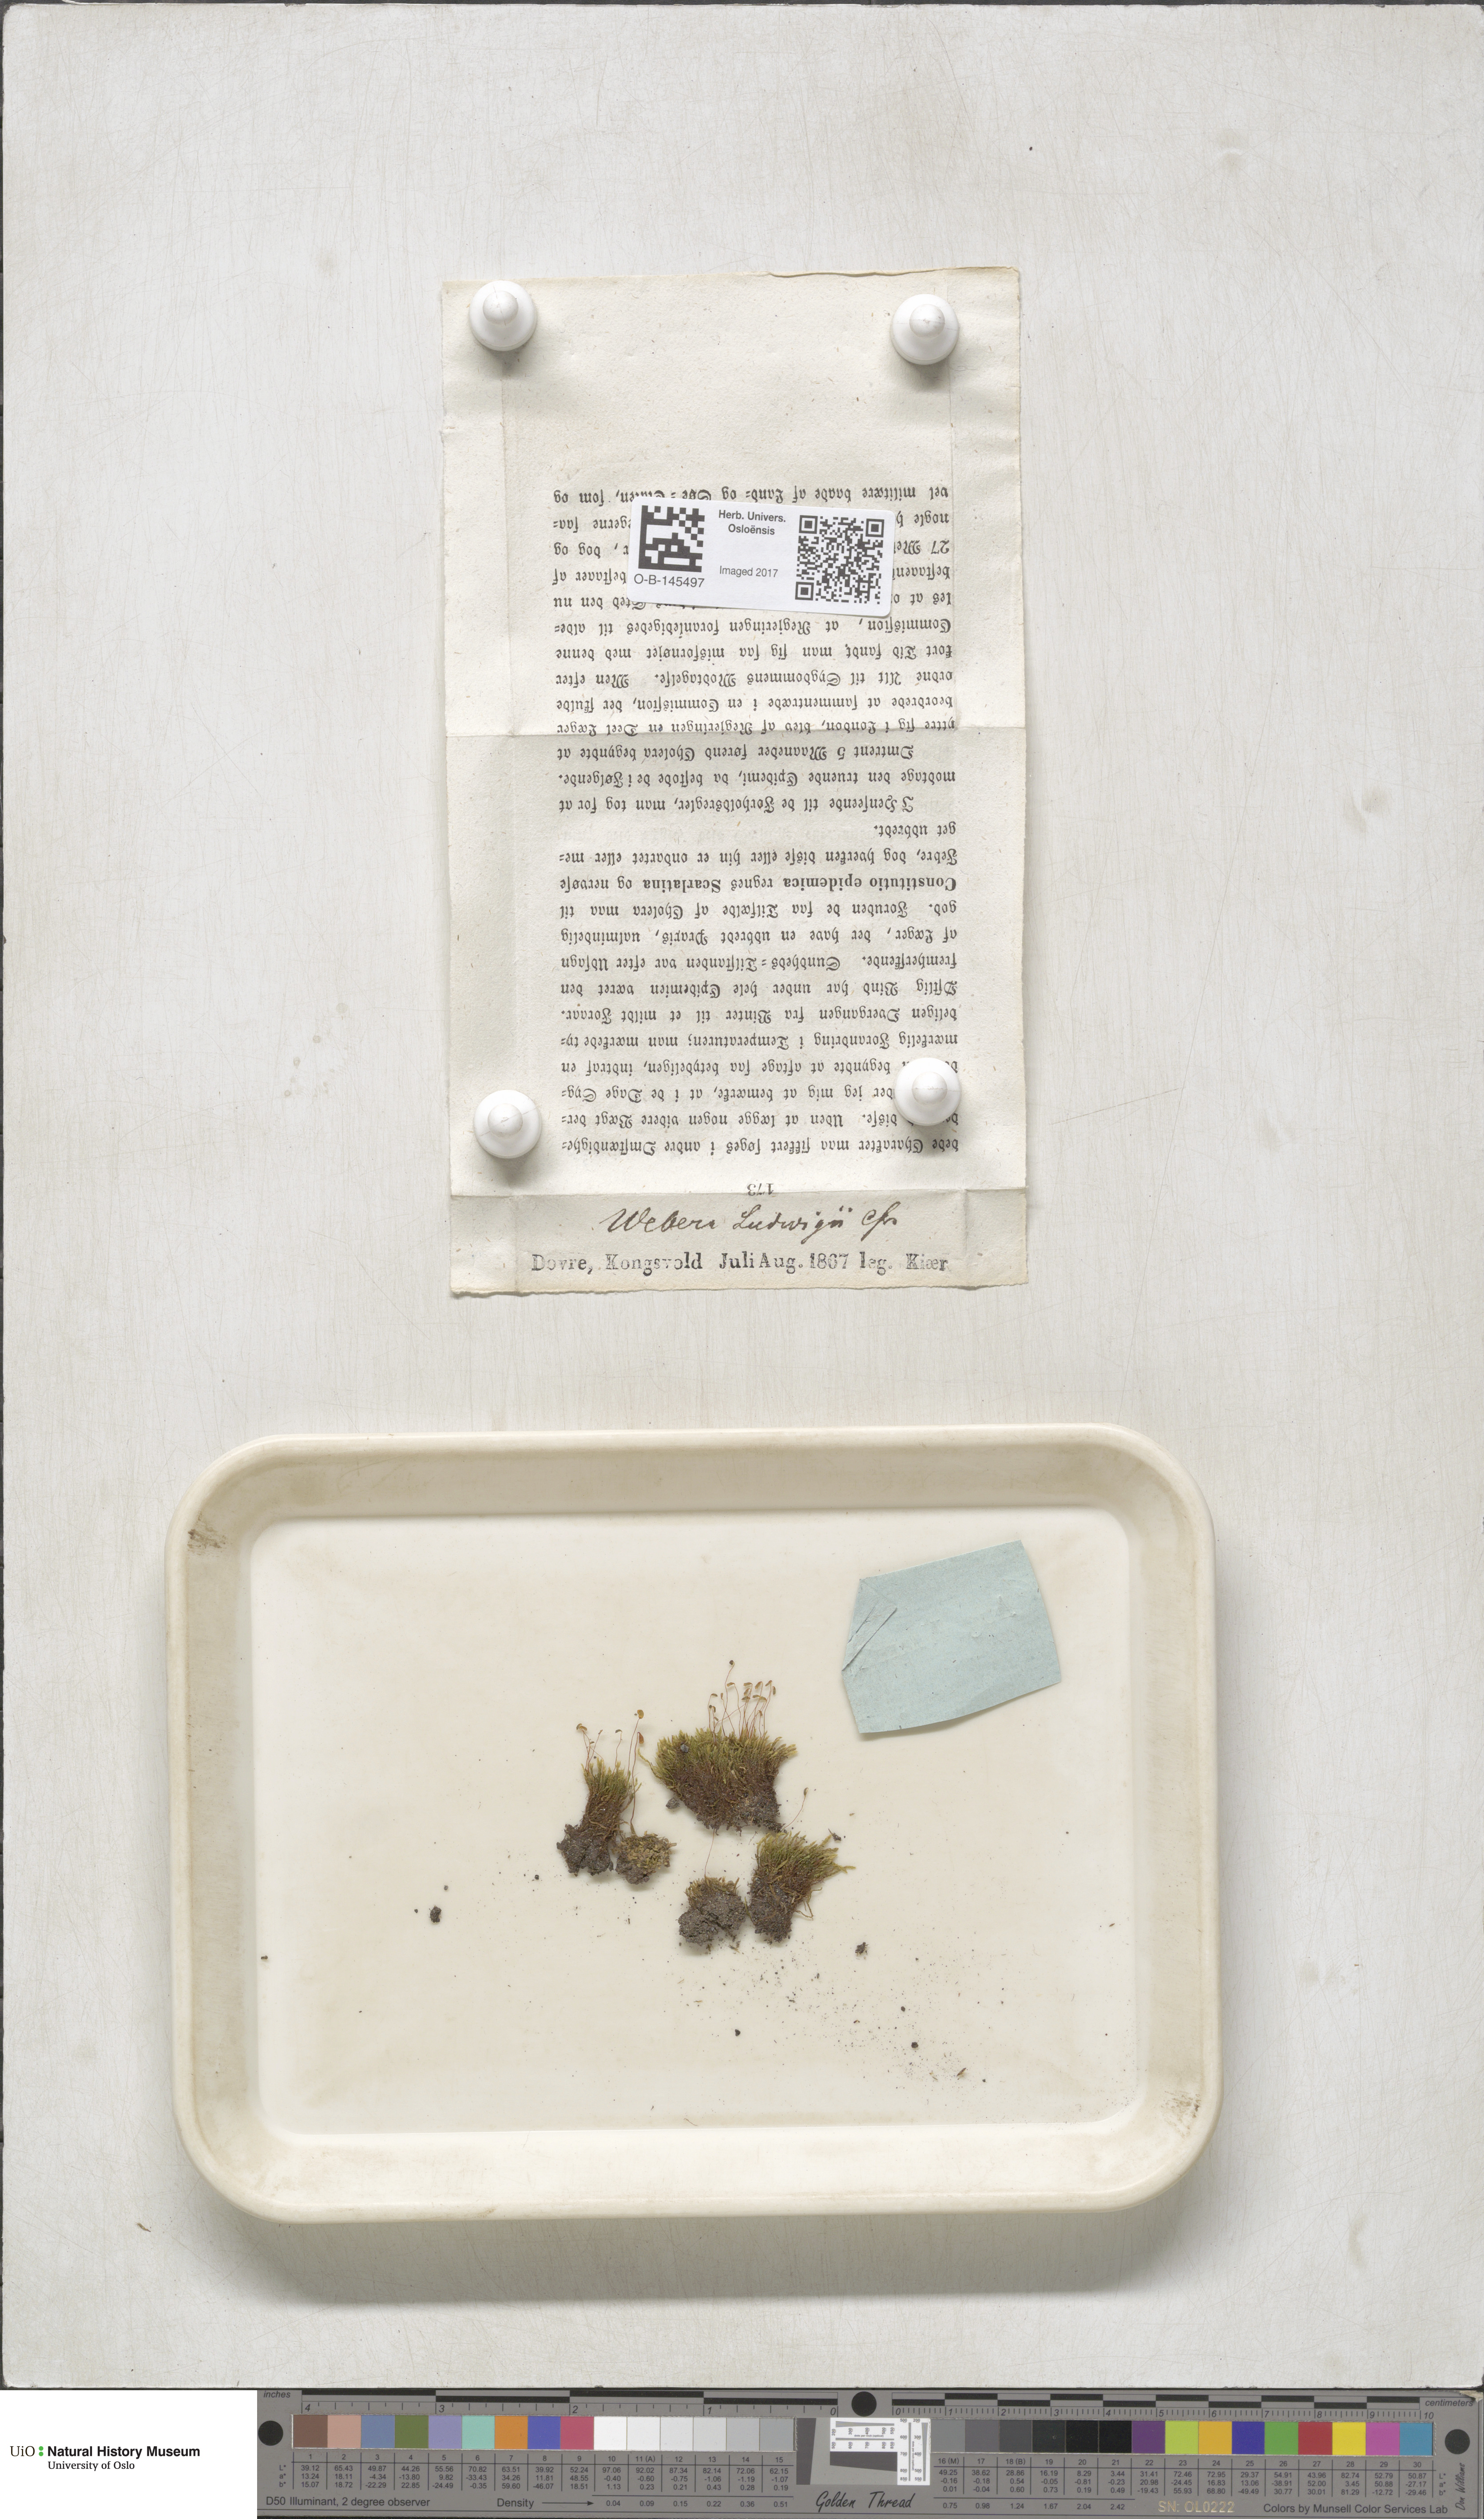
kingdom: Plantae
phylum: Bryophyta
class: Bryopsida
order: Bryales
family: Mniaceae
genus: Pohlia
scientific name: Pohlia ludwigii
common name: Ludwig's thread-moss
